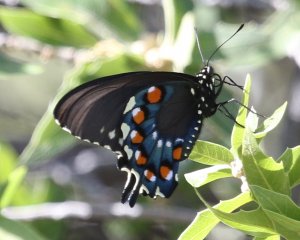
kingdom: Animalia
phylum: Arthropoda
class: Insecta
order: Lepidoptera
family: Papilionidae
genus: Battus
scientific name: Battus philenor
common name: Pipevine Swallowtail
